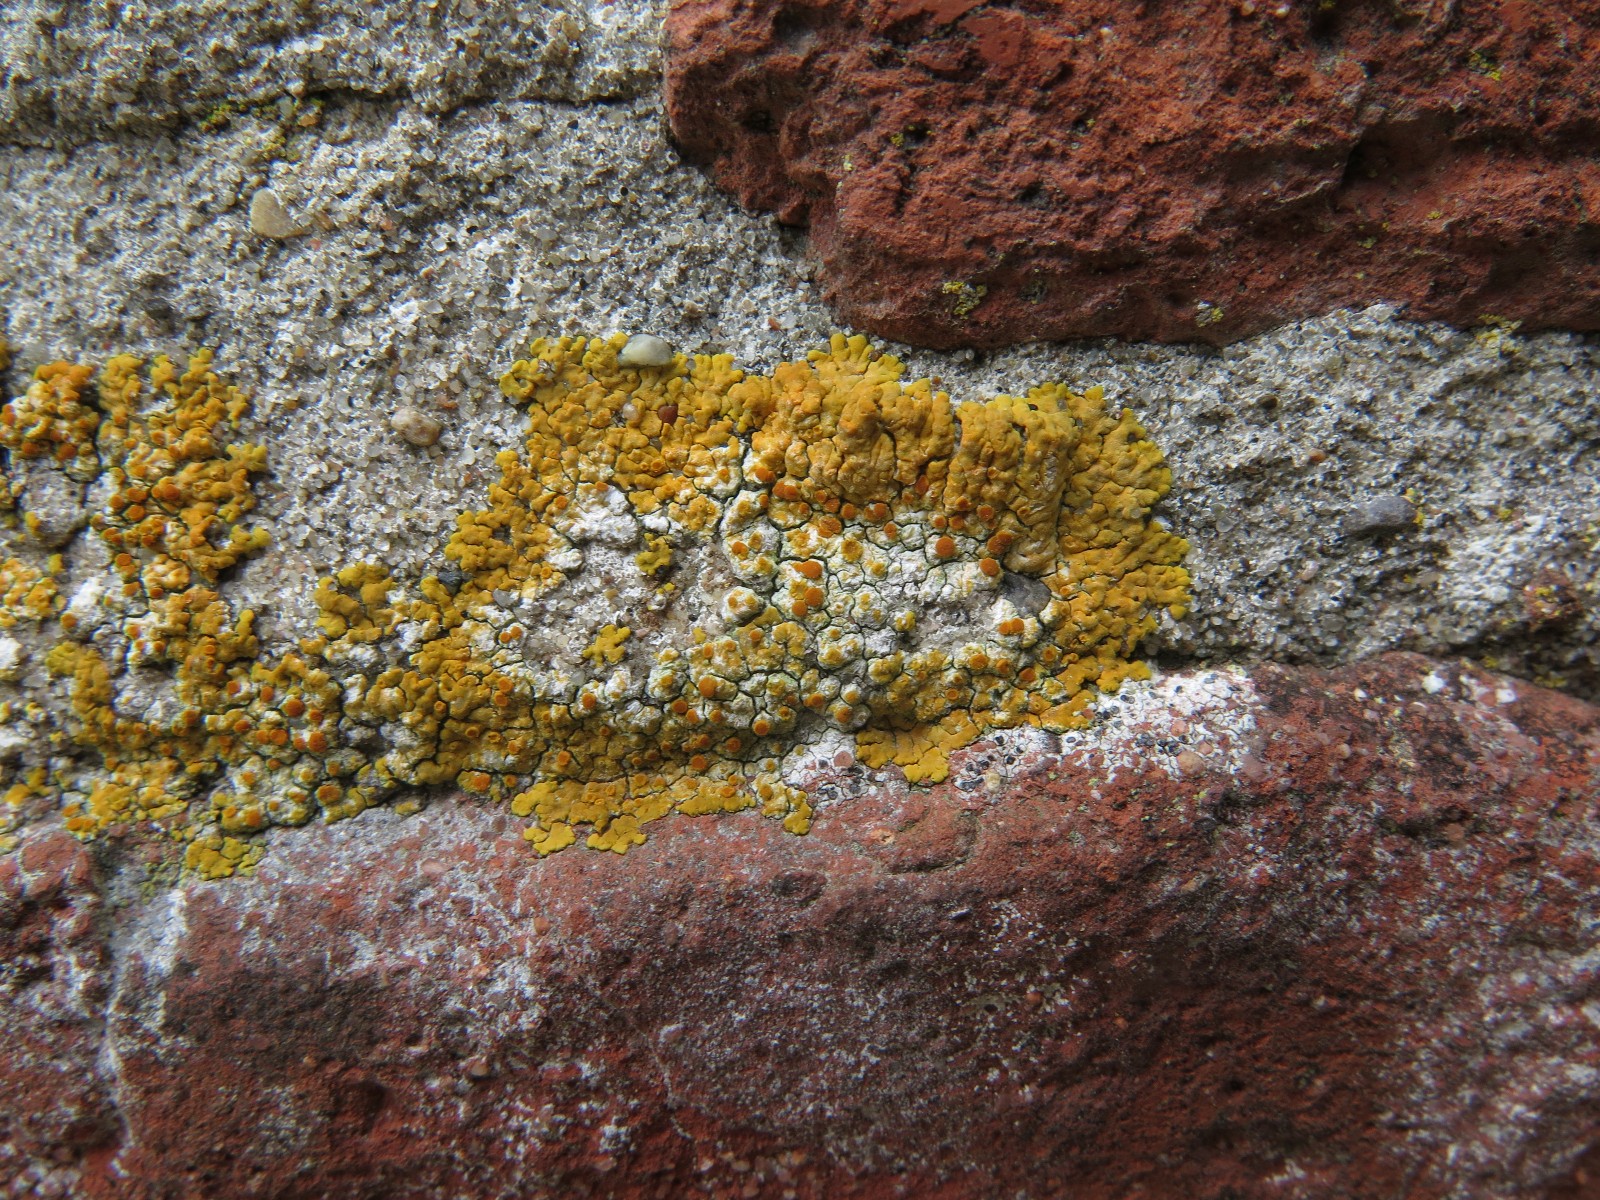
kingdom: Fungi
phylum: Ascomycota
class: Lecanoromycetes
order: Teloschistales
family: Teloschistaceae
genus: Variospora
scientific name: Variospora flavescens
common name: kalk-orangelav
